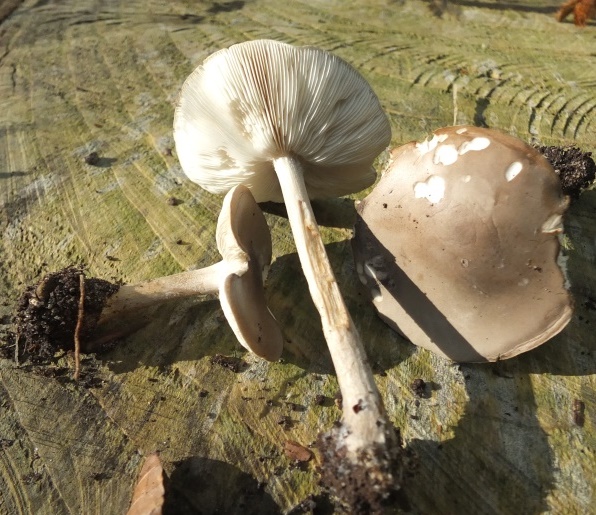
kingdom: Fungi
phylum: Basidiomycota
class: Agaricomycetes
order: Agaricales
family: Tricholomataceae
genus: Melanoleuca
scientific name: Melanoleuca polioleuca
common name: almindelig munkehat
